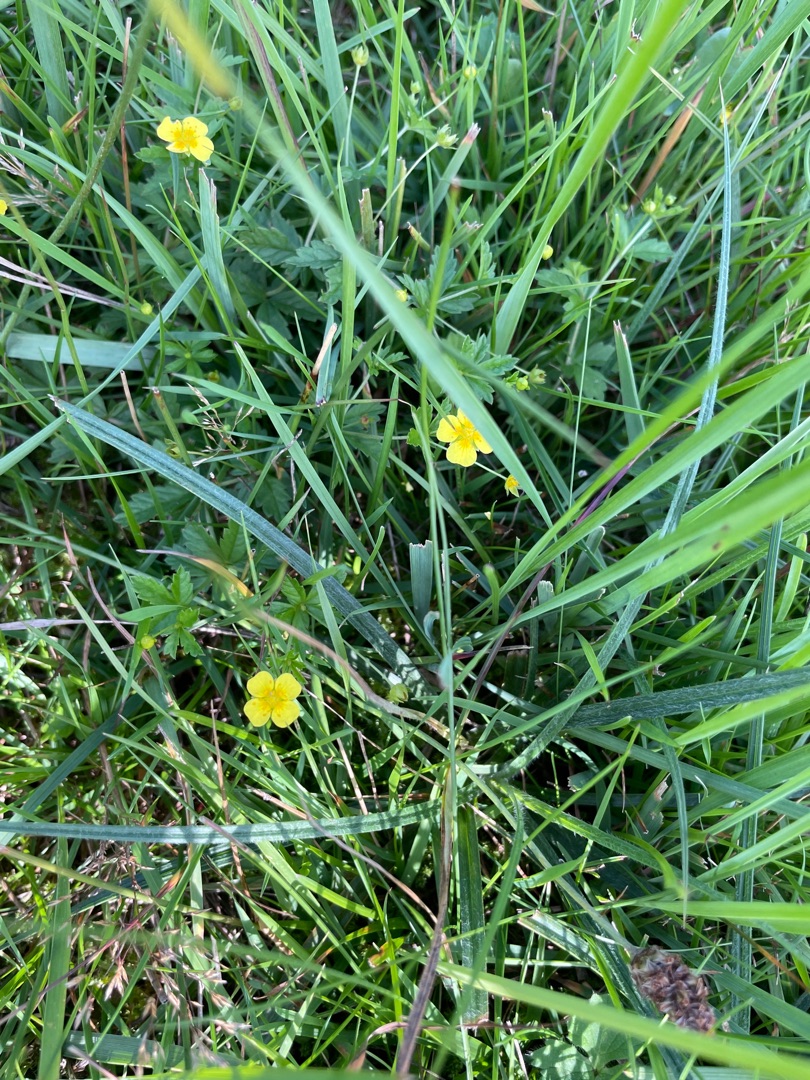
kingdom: Plantae
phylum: Tracheophyta
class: Magnoliopsida
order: Rosales
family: Rosaceae
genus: Potentilla
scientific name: Potentilla erecta
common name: Tormentil
